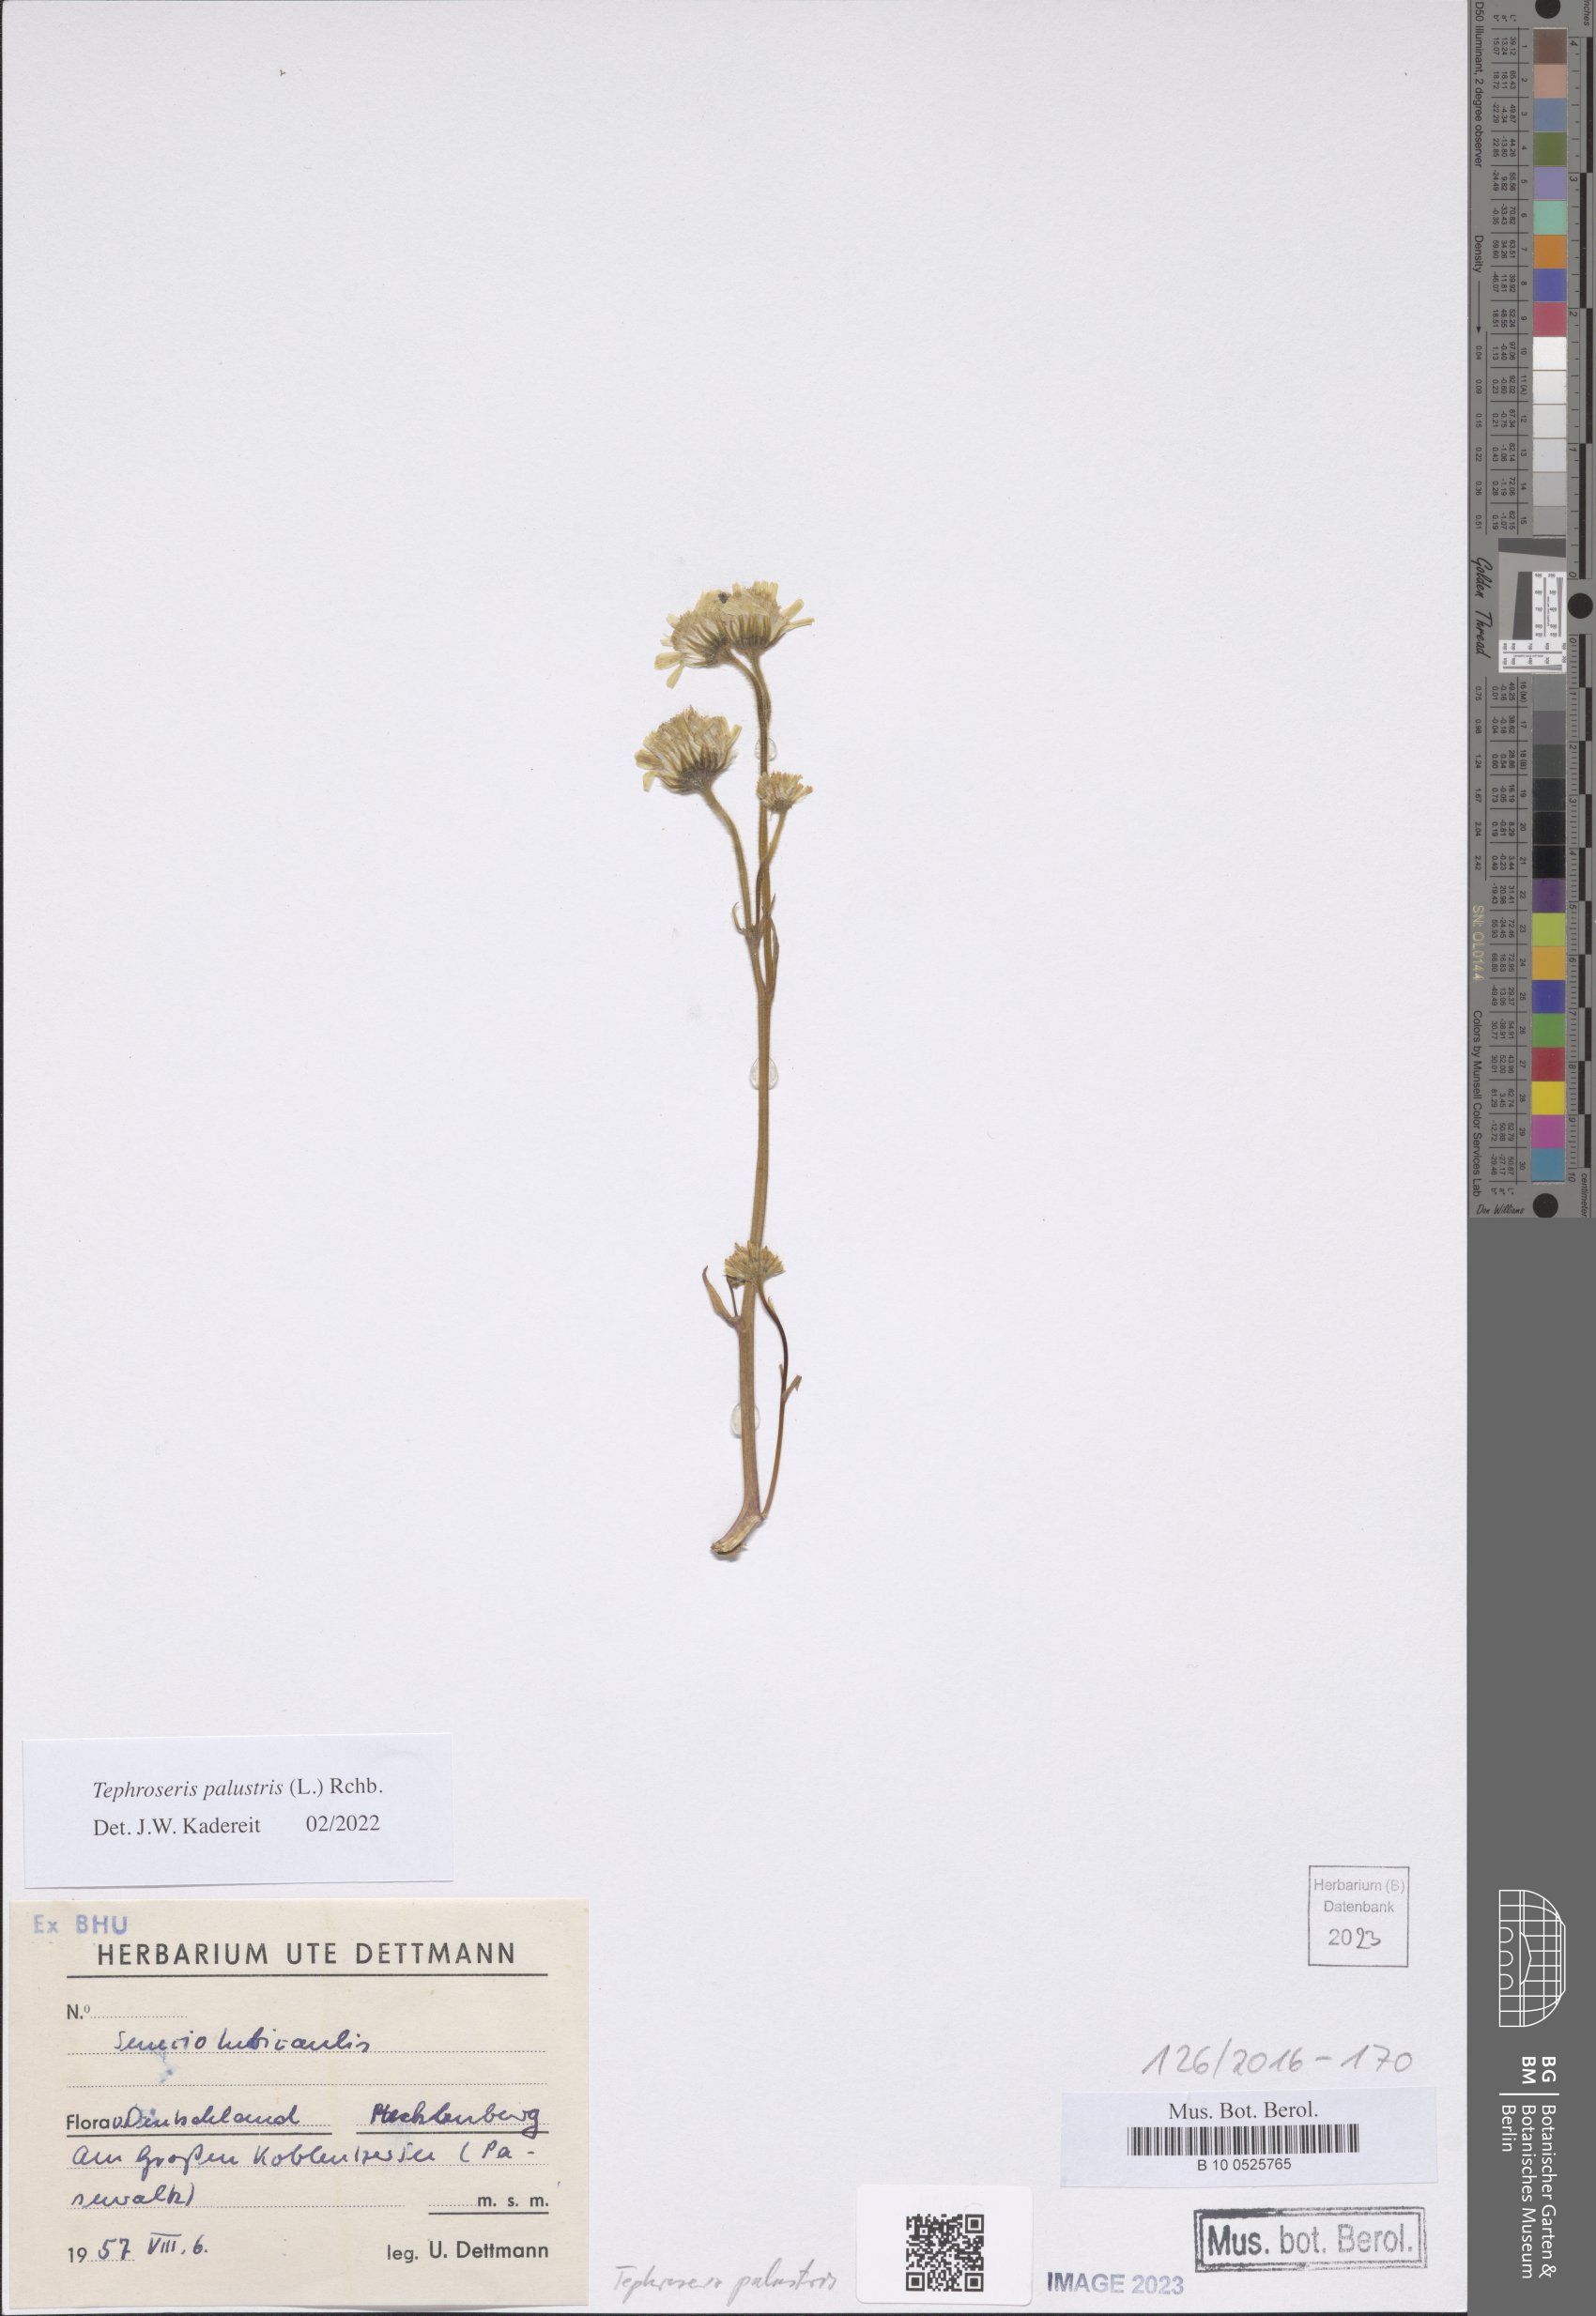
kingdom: Plantae
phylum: Tracheophyta
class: Magnoliopsida
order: Asterales
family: Asteraceae
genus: Tephroseris
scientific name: Tephroseris palustris
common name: Marsh fleawort
